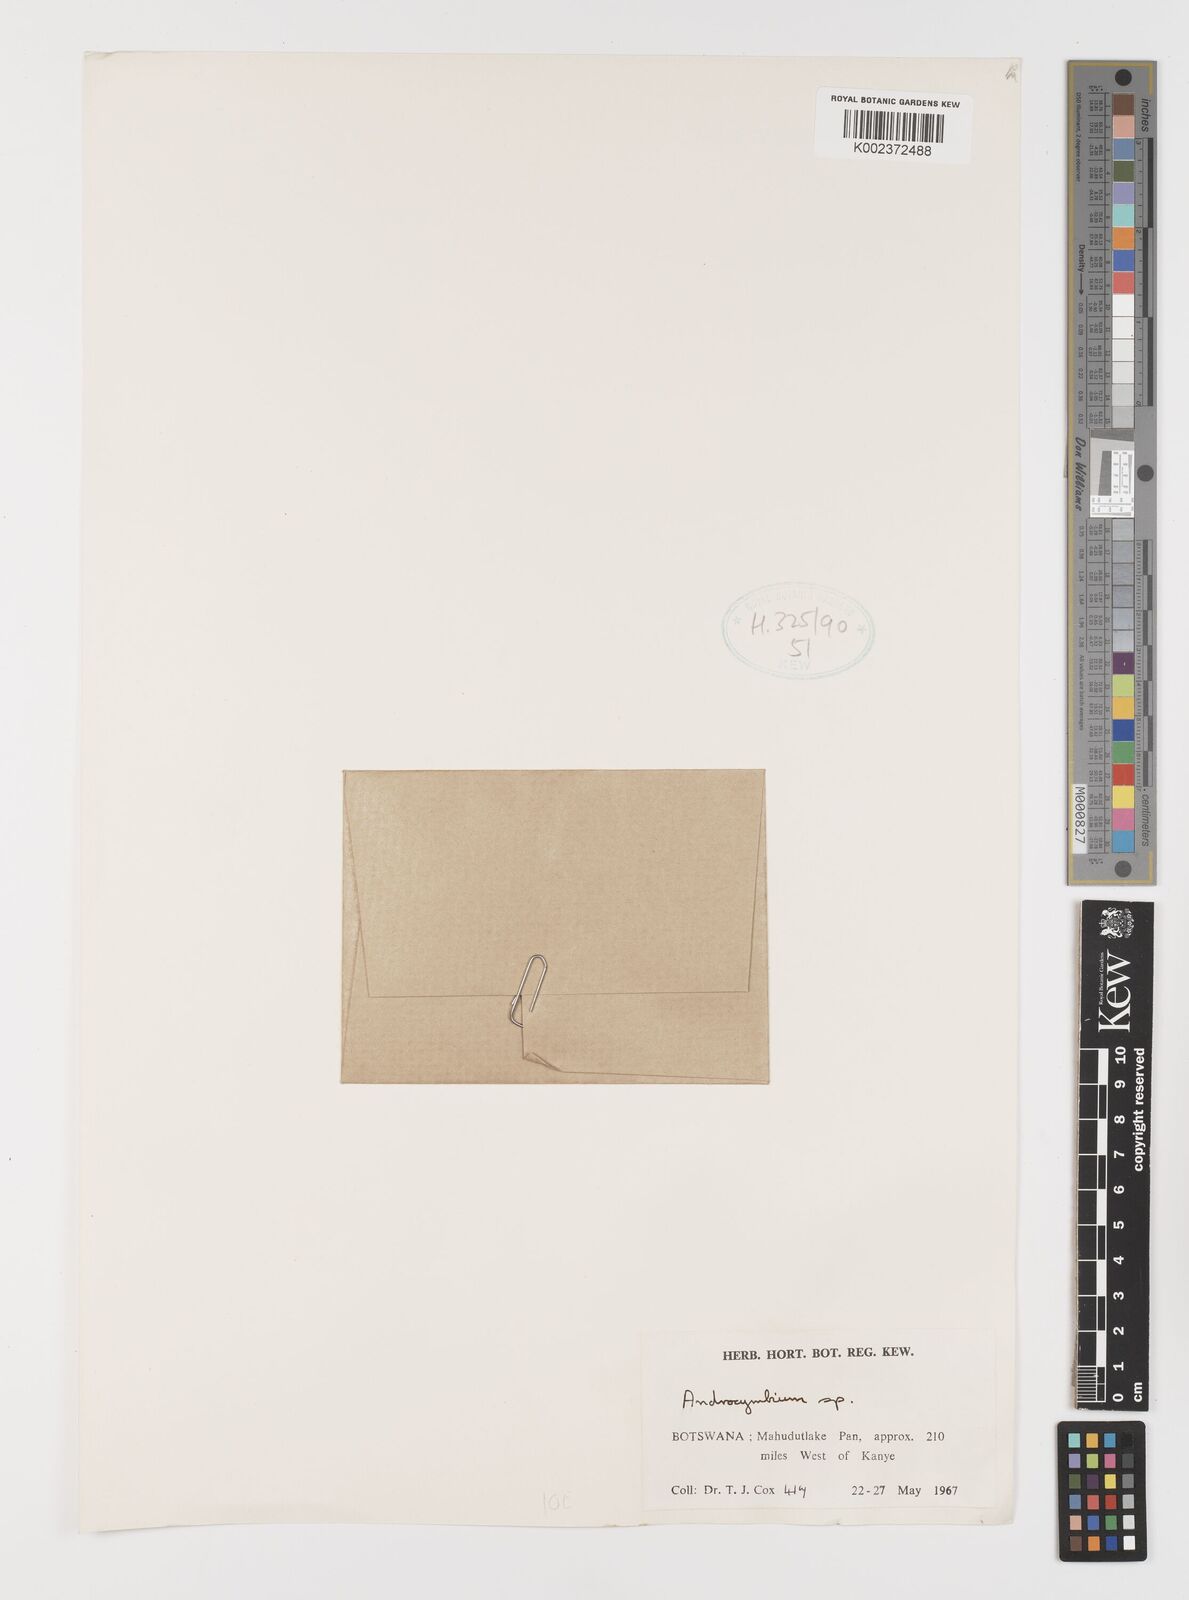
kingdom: Plantae
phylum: Tracheophyta
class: Liliopsida
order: Liliales
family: Colchicaceae
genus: Colchicum
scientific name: Colchicum
